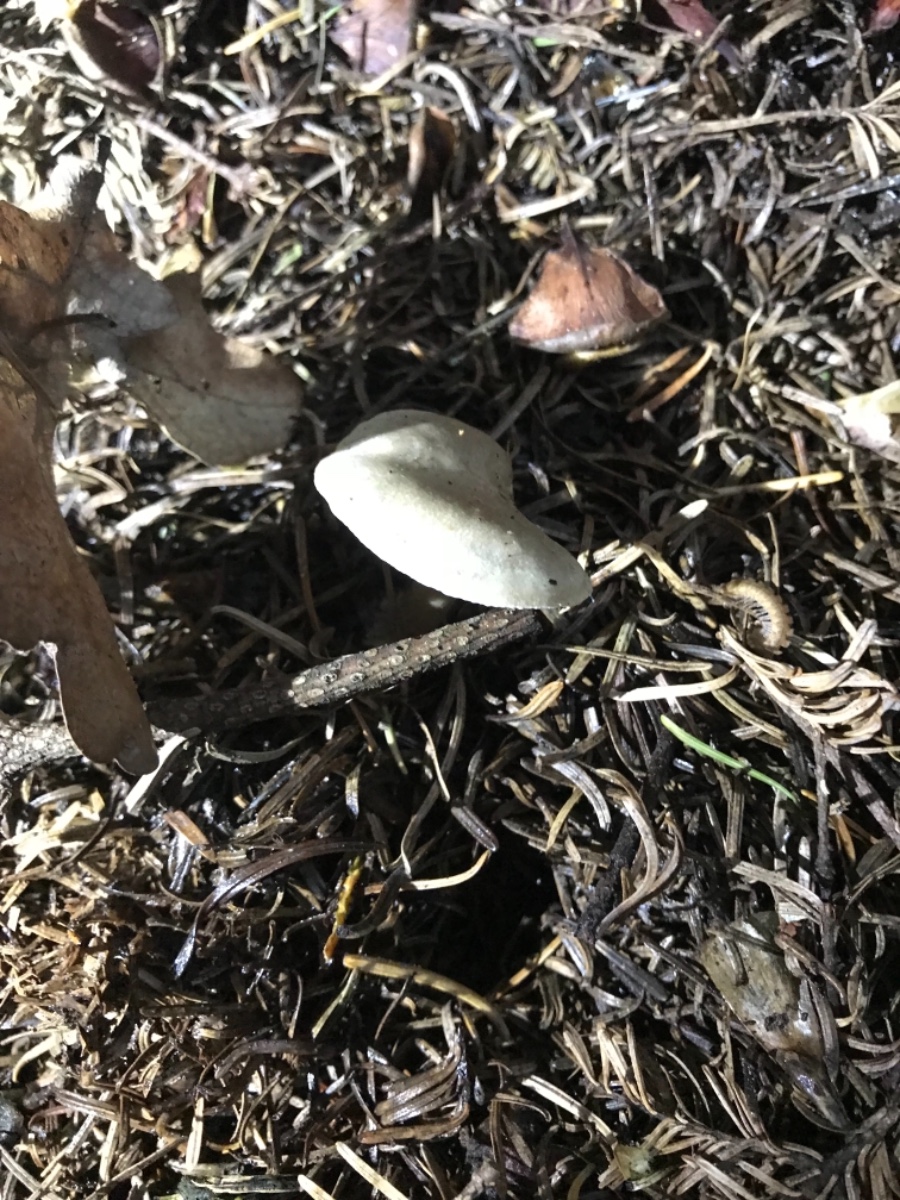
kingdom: Fungi
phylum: Basidiomycota
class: Agaricomycetes
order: Agaricales
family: Tricholomataceae
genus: Clitocybe
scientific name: Clitocybe odora
